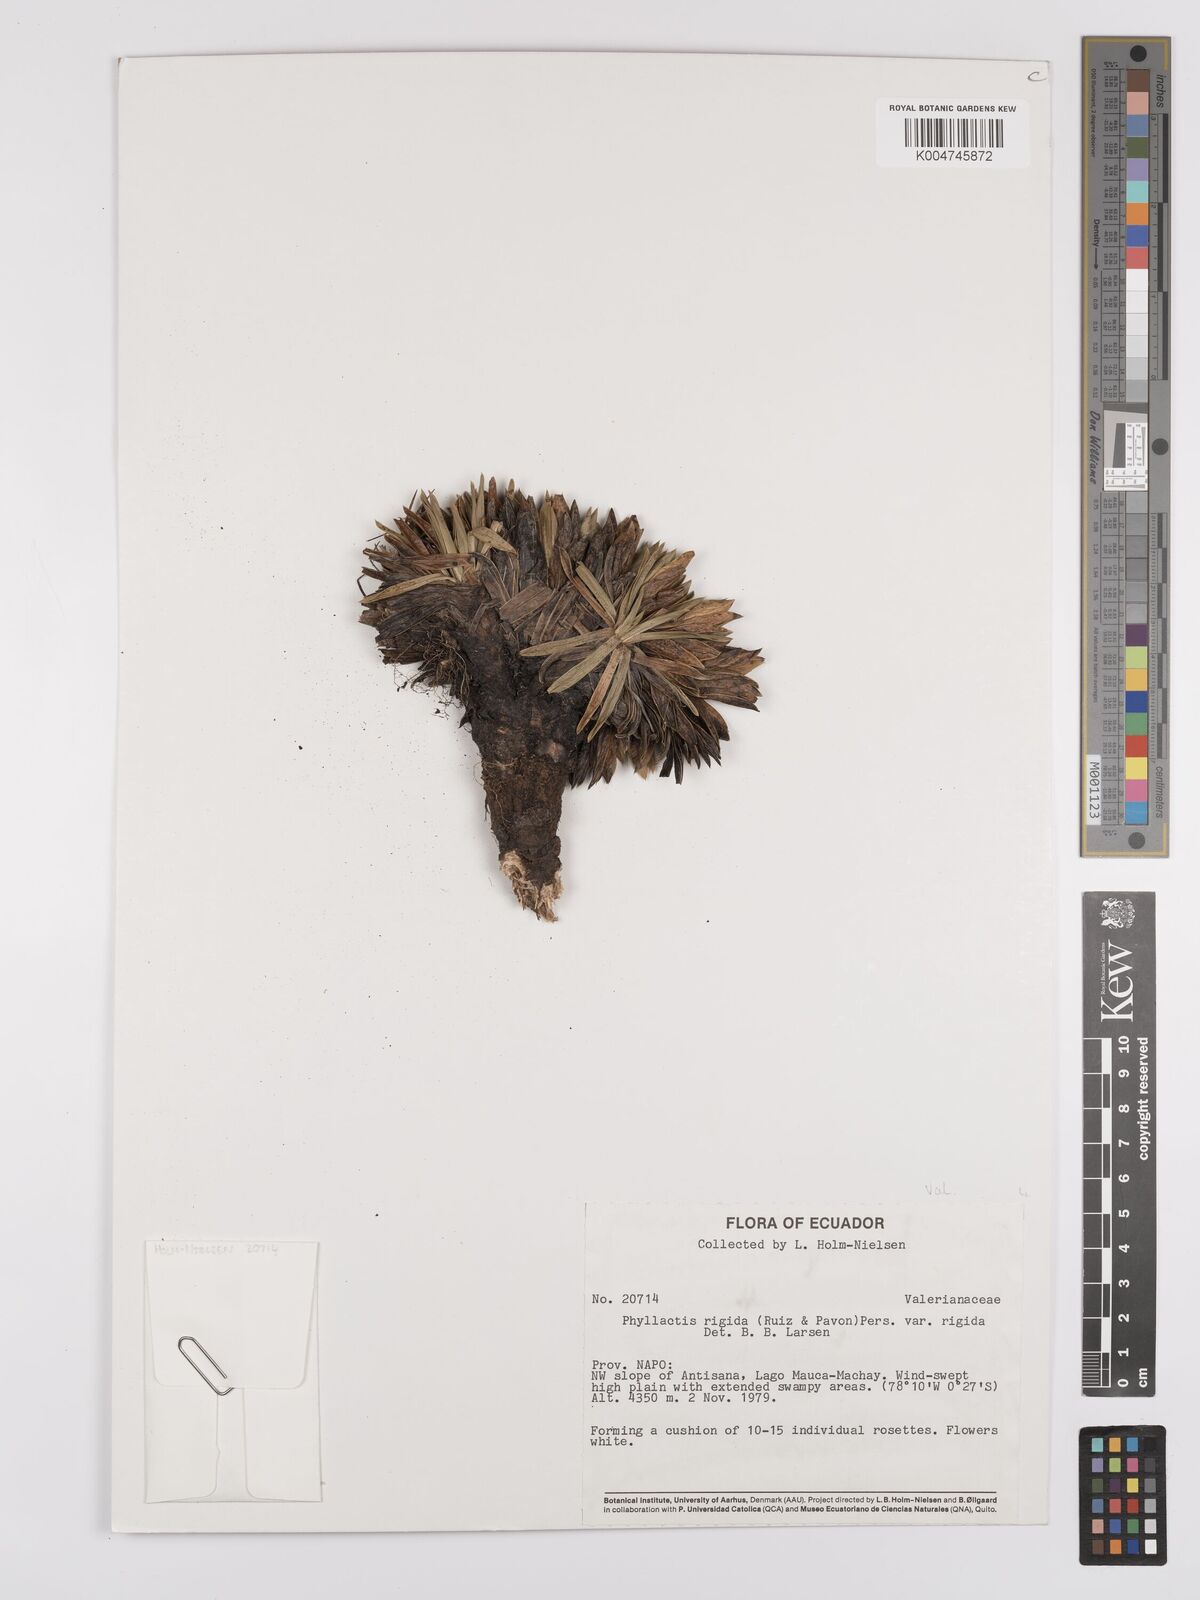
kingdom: Plantae
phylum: Tracheophyta
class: Magnoliopsida
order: Dipsacales
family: Caprifoliaceae
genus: Valeriana
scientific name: Valeriana rigida
